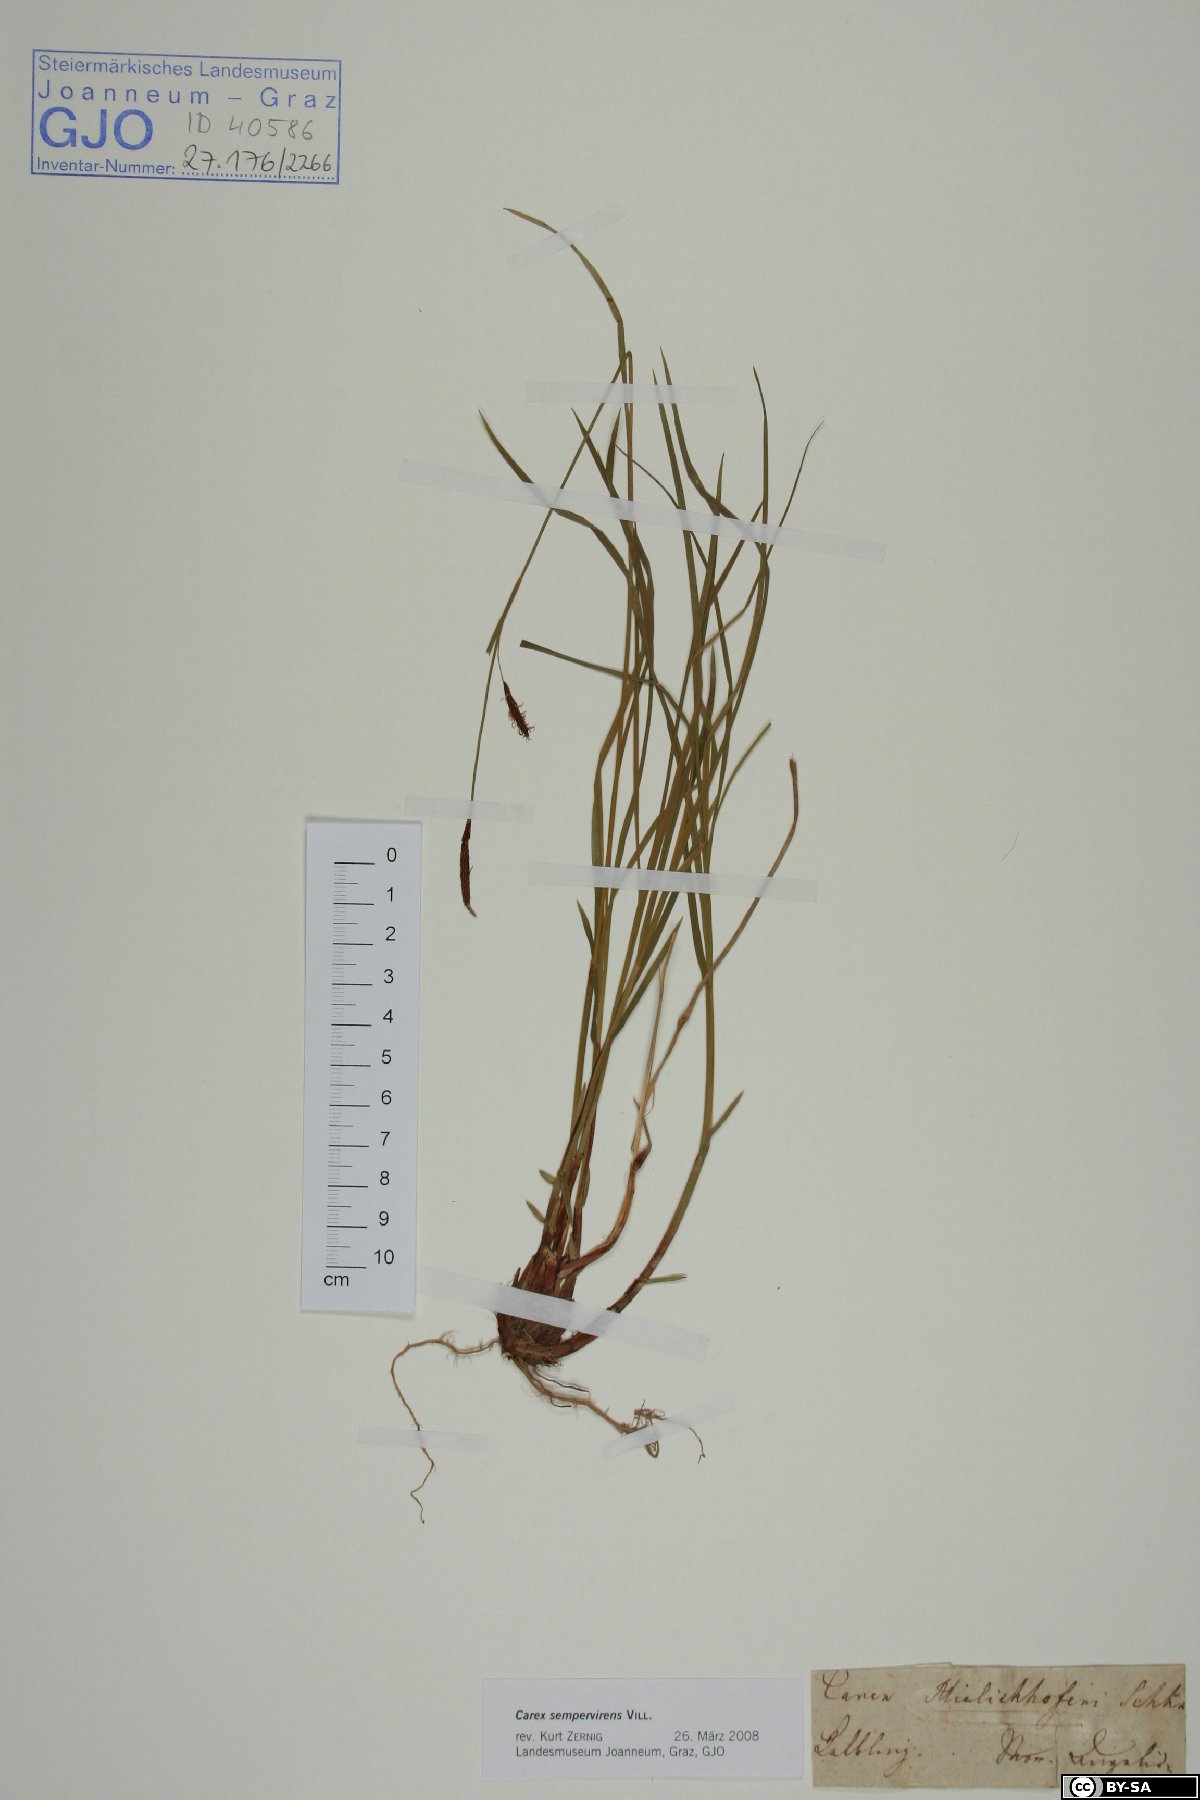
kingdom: Plantae
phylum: Tracheophyta
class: Liliopsida
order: Poales
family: Cyperaceae
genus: Carex
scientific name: Carex sempervirens
